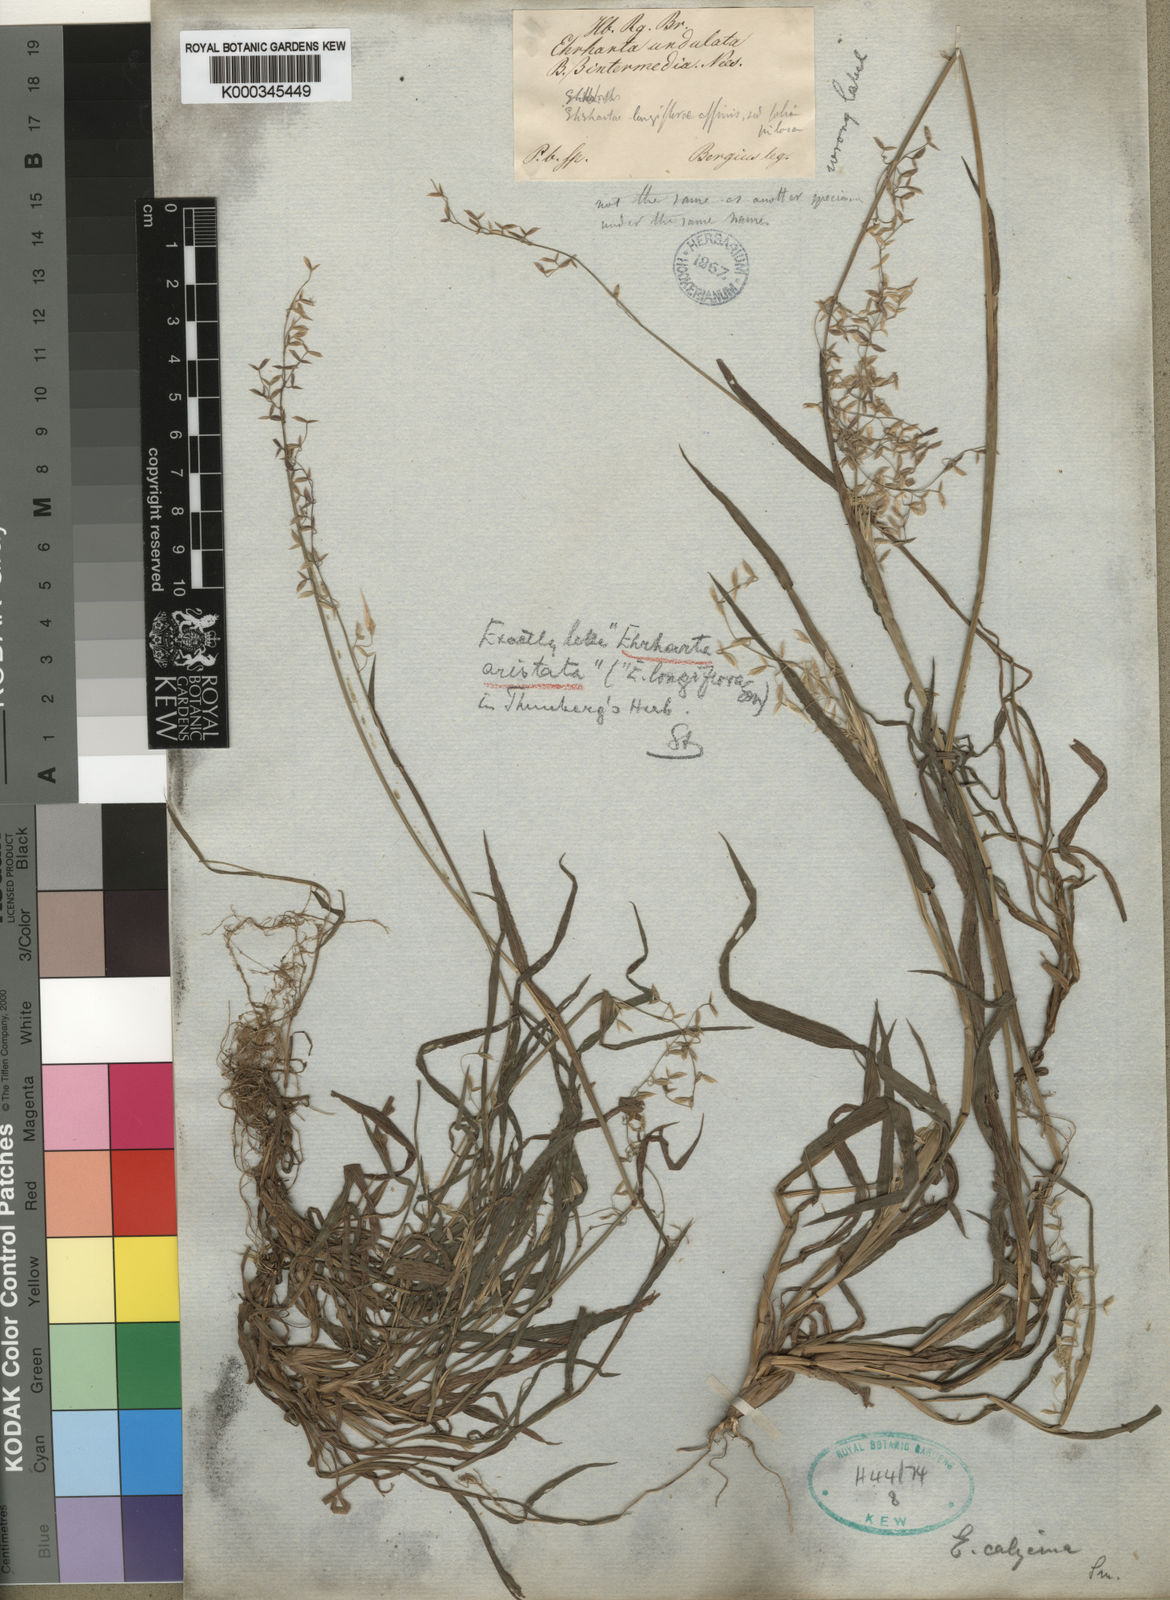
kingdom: Plantae
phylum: Tracheophyta
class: Liliopsida
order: Poales
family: Poaceae
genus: Ehrharta
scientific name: Ehrharta longiflora
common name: Longflowered veldtgrass
